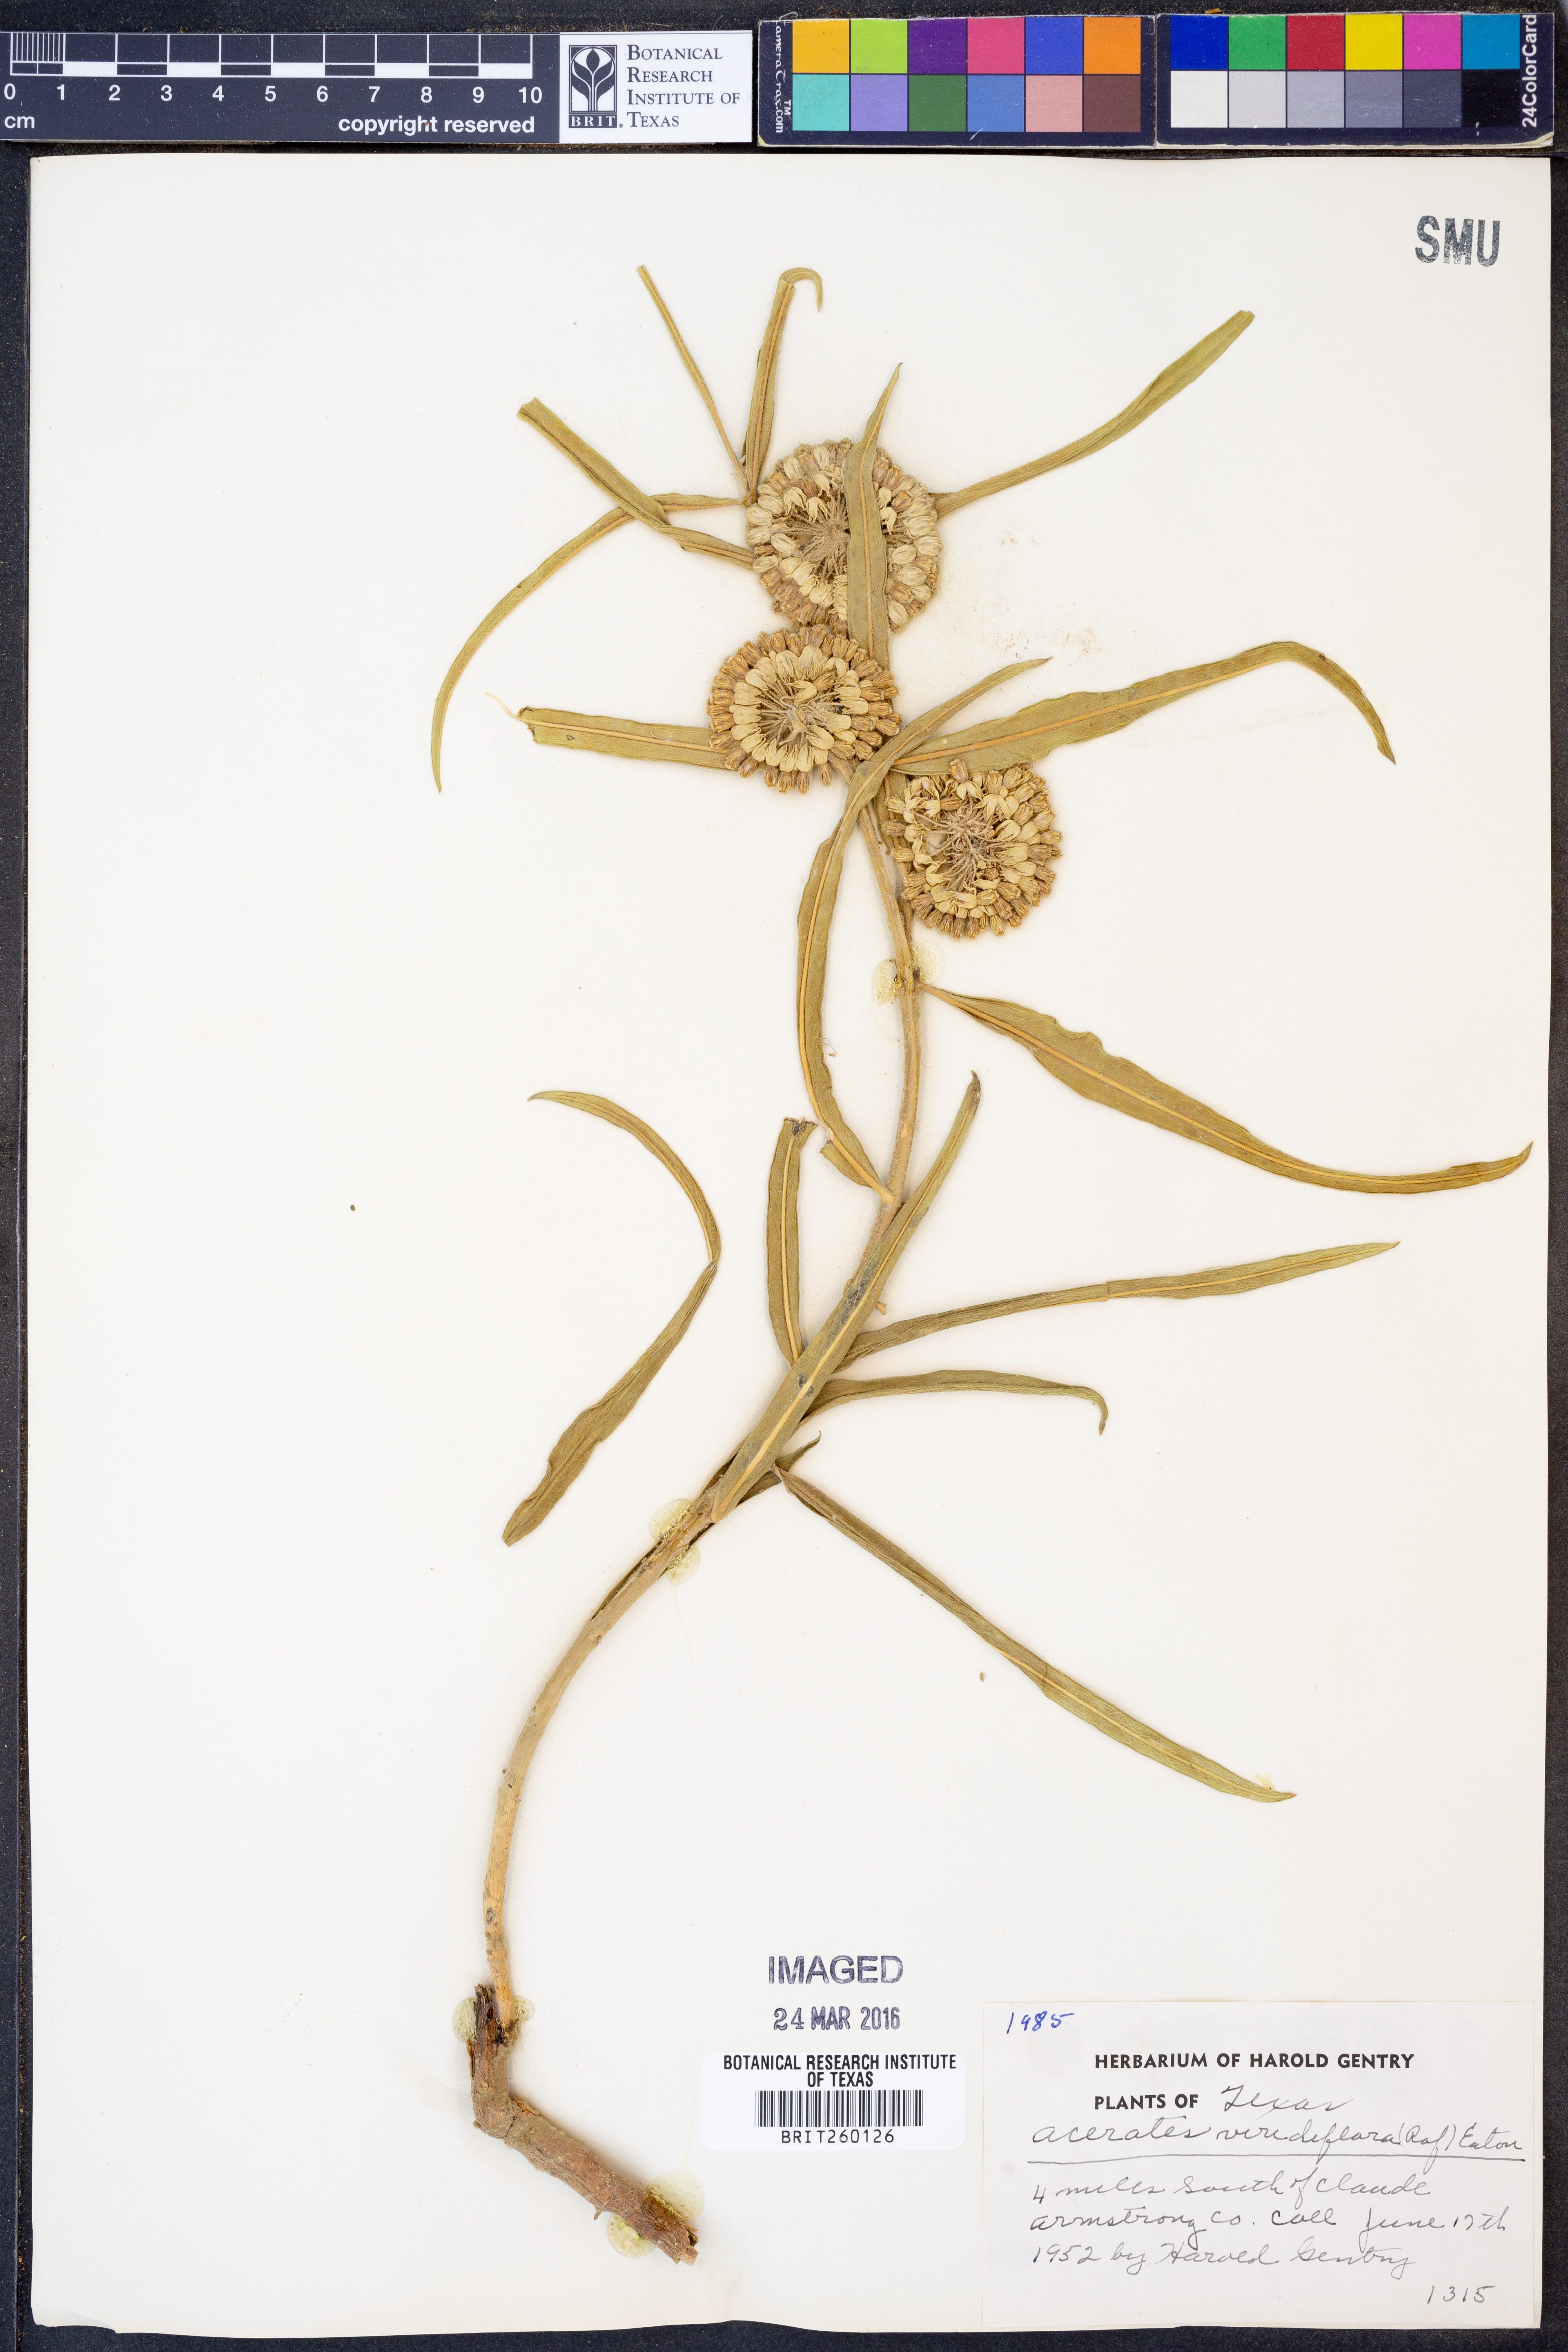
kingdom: Plantae
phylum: Tracheophyta
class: Magnoliopsida
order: Gentianales
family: Apocynaceae
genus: Asclepias
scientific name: Asclepias viridiflora
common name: Green comet milkweed
